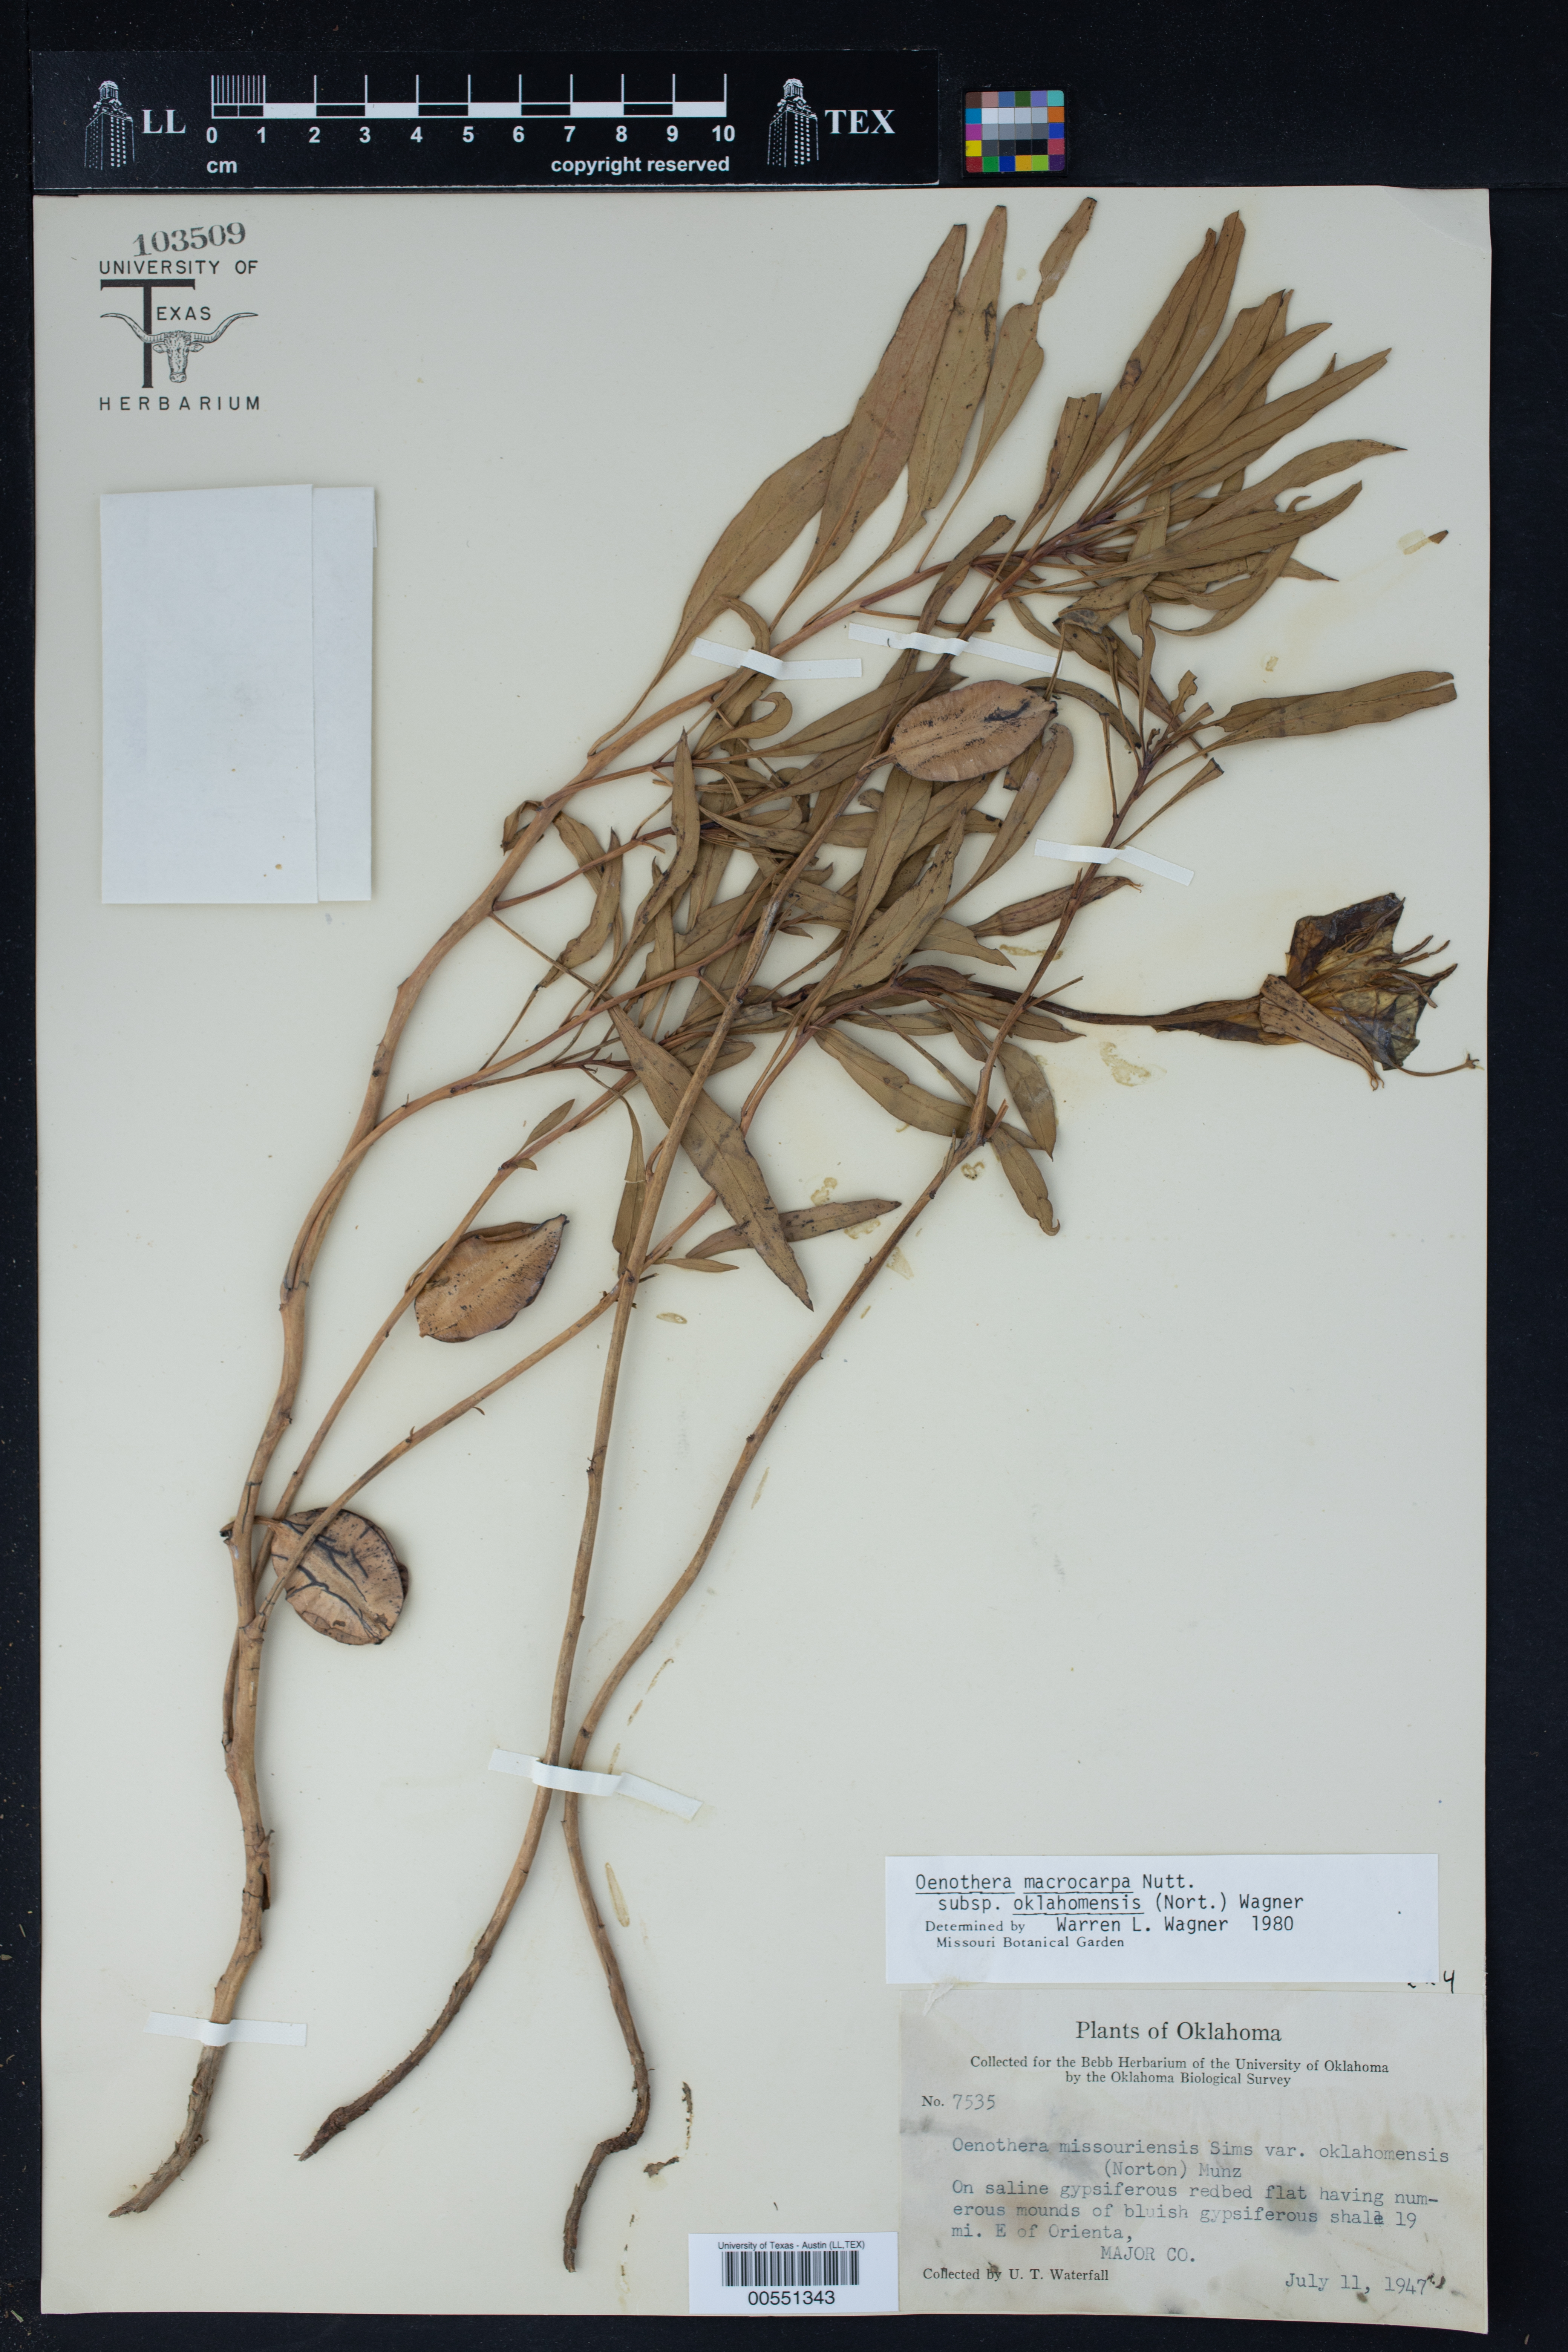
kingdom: Plantae
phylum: Tracheophyta
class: Magnoliopsida
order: Myrtales
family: Onagraceae
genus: Oenothera
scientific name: Oenothera macrocarpa
